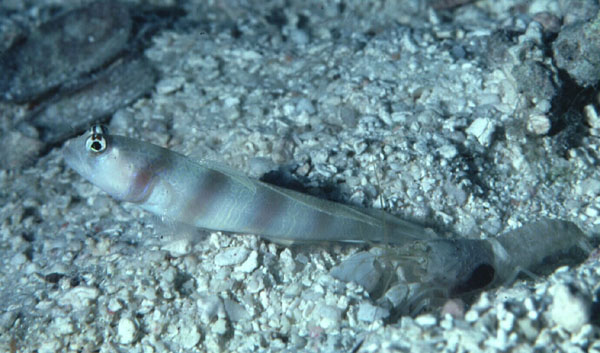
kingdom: Animalia
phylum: Chordata
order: Perciformes
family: Gobiidae
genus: Amblyeleotris
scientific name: Amblyeleotris steinitzi
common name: Steinitz' prawn-goby
